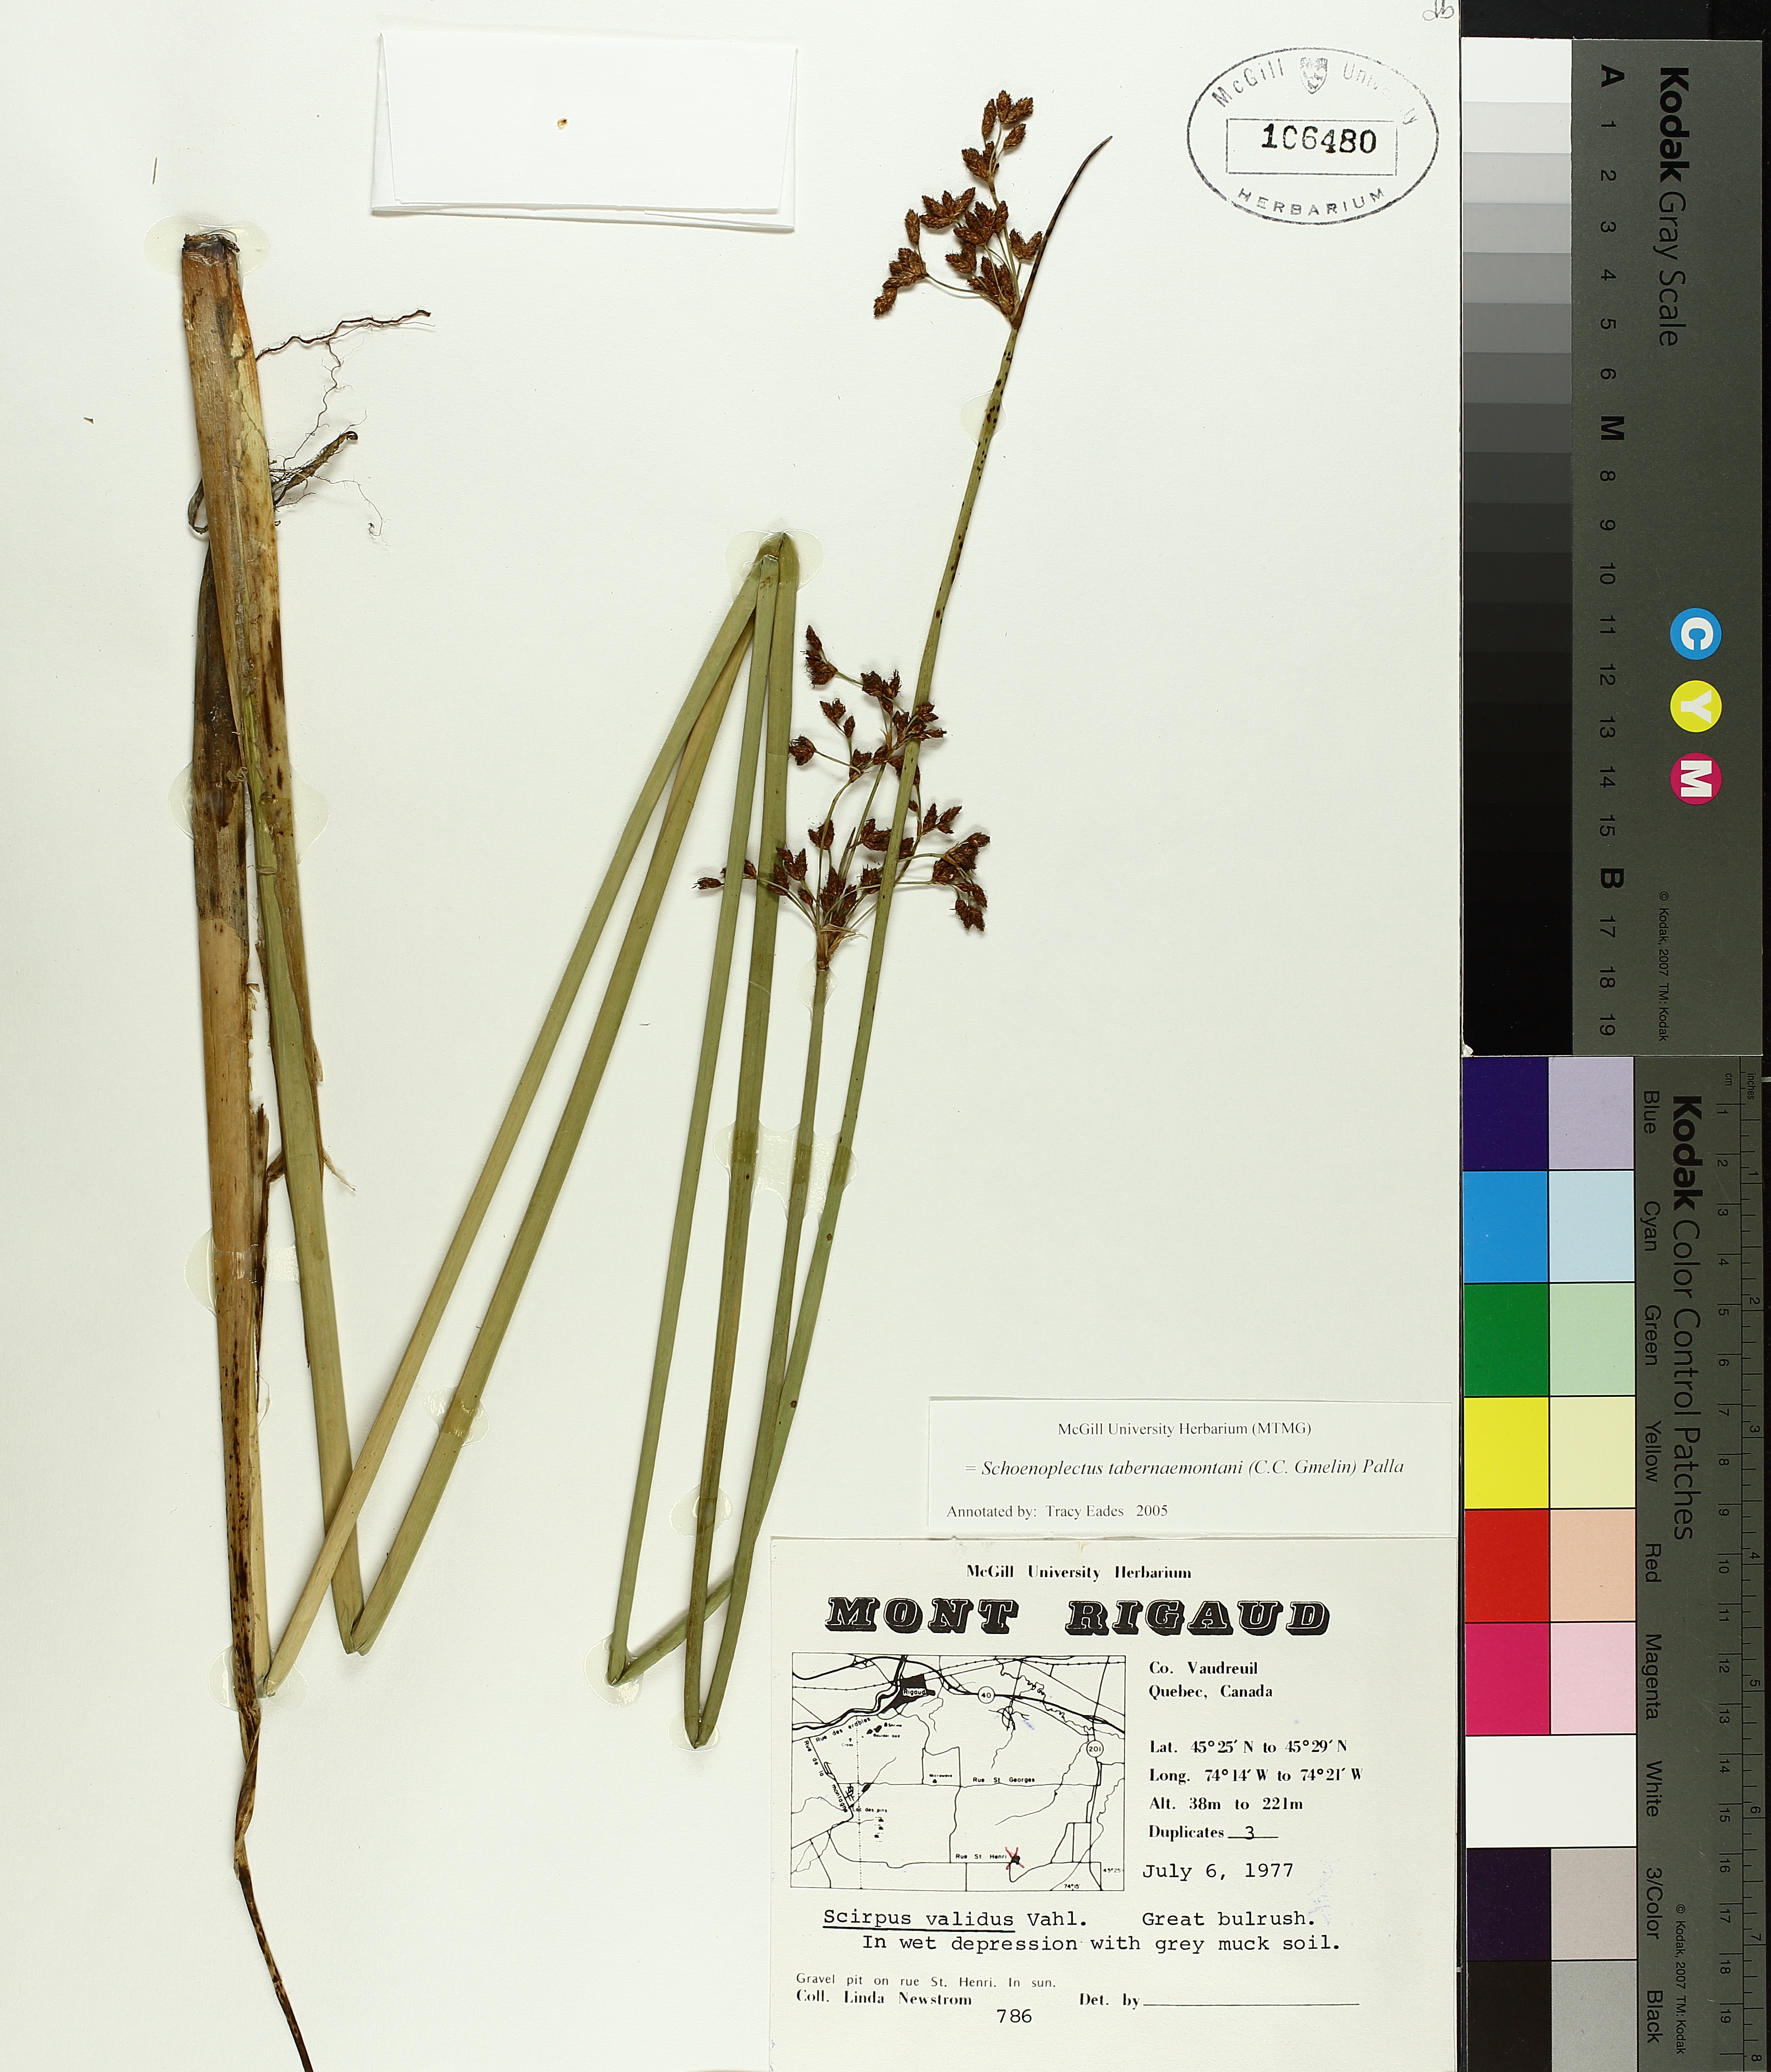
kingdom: Plantae
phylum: Tracheophyta
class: Liliopsida
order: Poales
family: Cyperaceae
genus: Schoenoplectus
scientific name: Schoenoplectus tabernaemontani
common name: Grey club-rush
